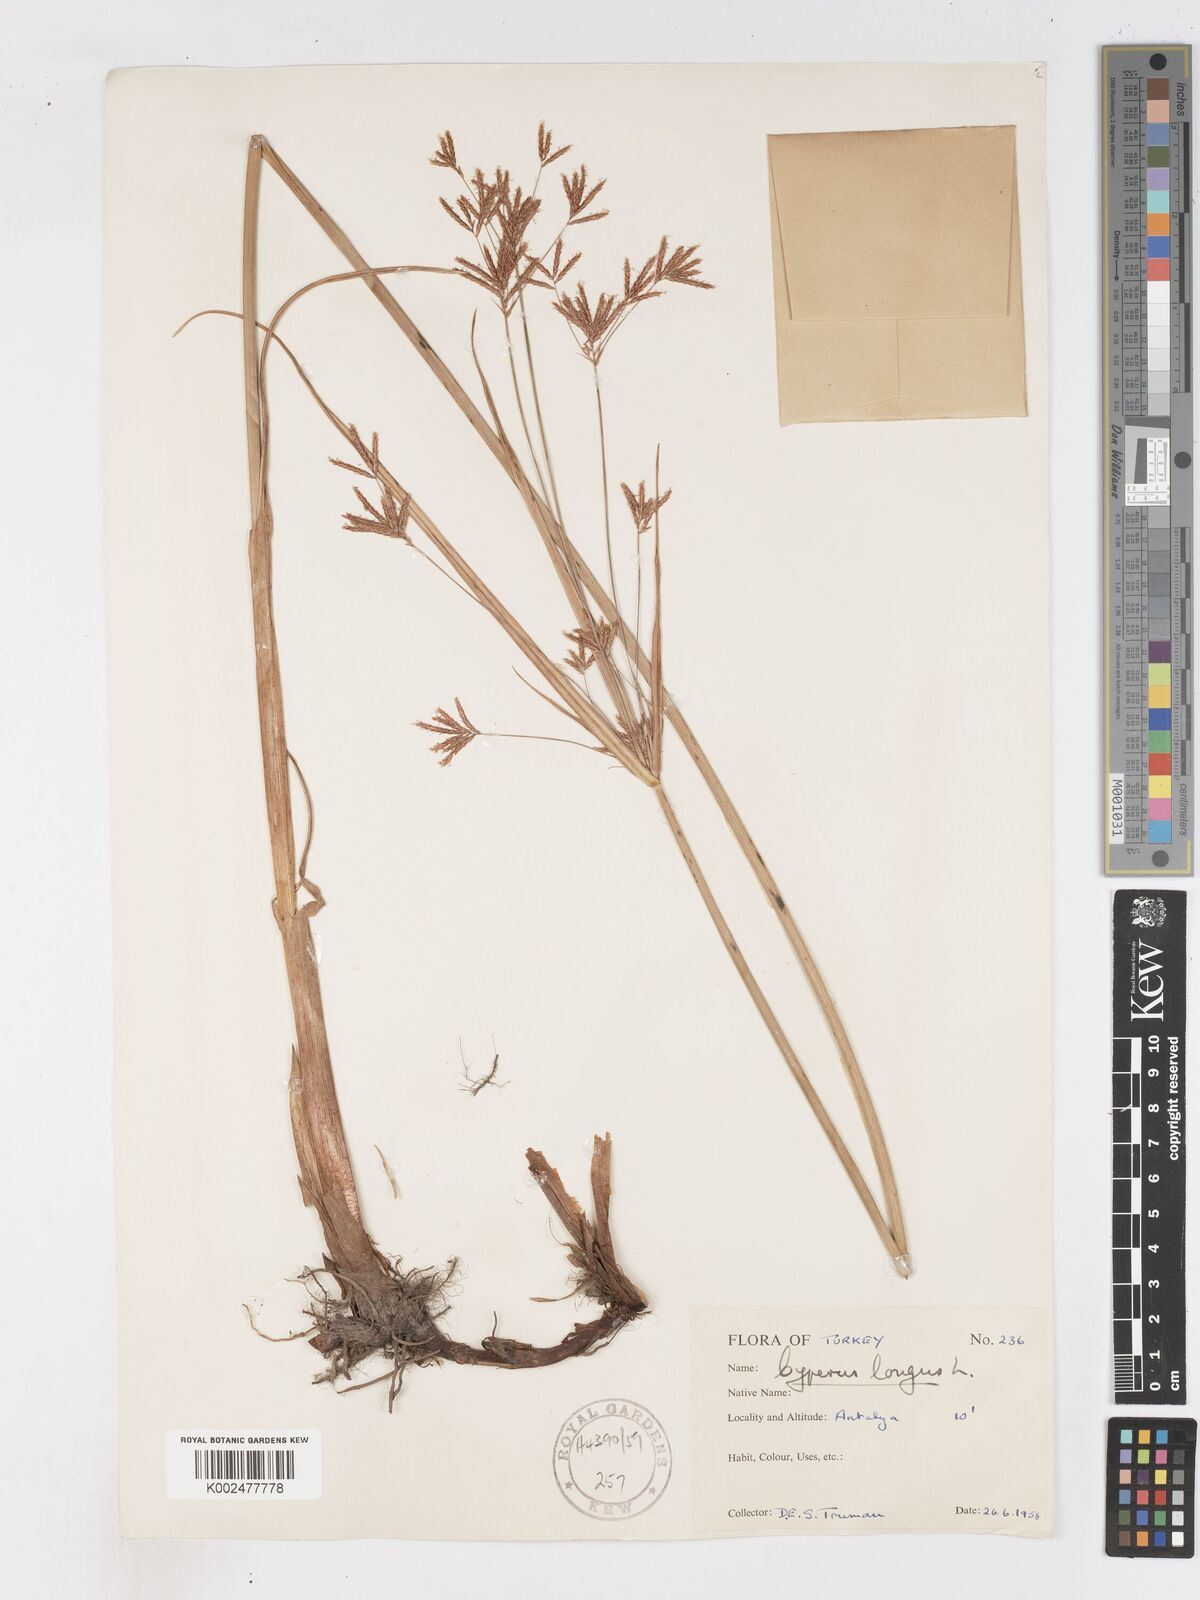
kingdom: Plantae
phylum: Tracheophyta
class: Liliopsida
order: Poales
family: Cyperaceae
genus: Cyperus
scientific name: Cyperus longus
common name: Galingale
